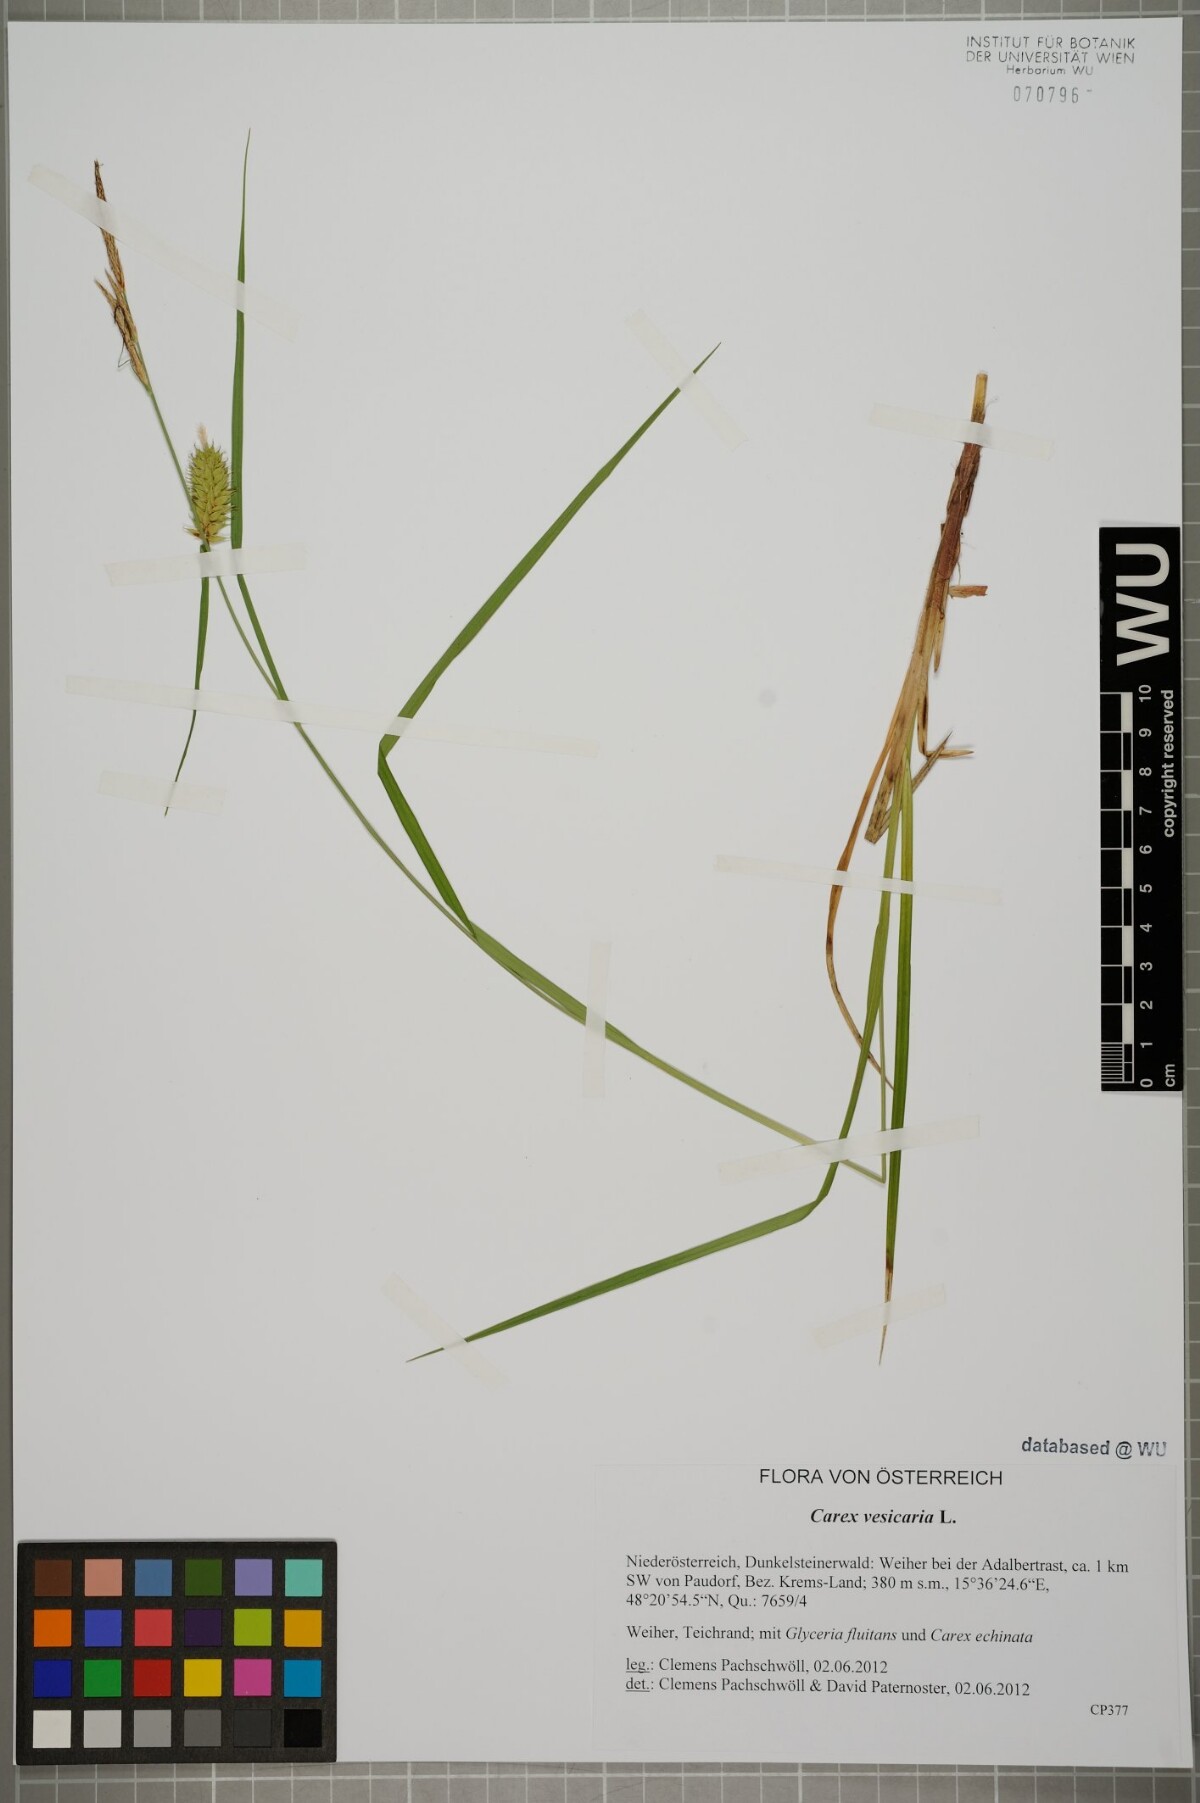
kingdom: Plantae
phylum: Tracheophyta
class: Liliopsida
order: Poales
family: Cyperaceae
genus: Carex
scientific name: Carex vesicaria
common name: Bladder-sedge
